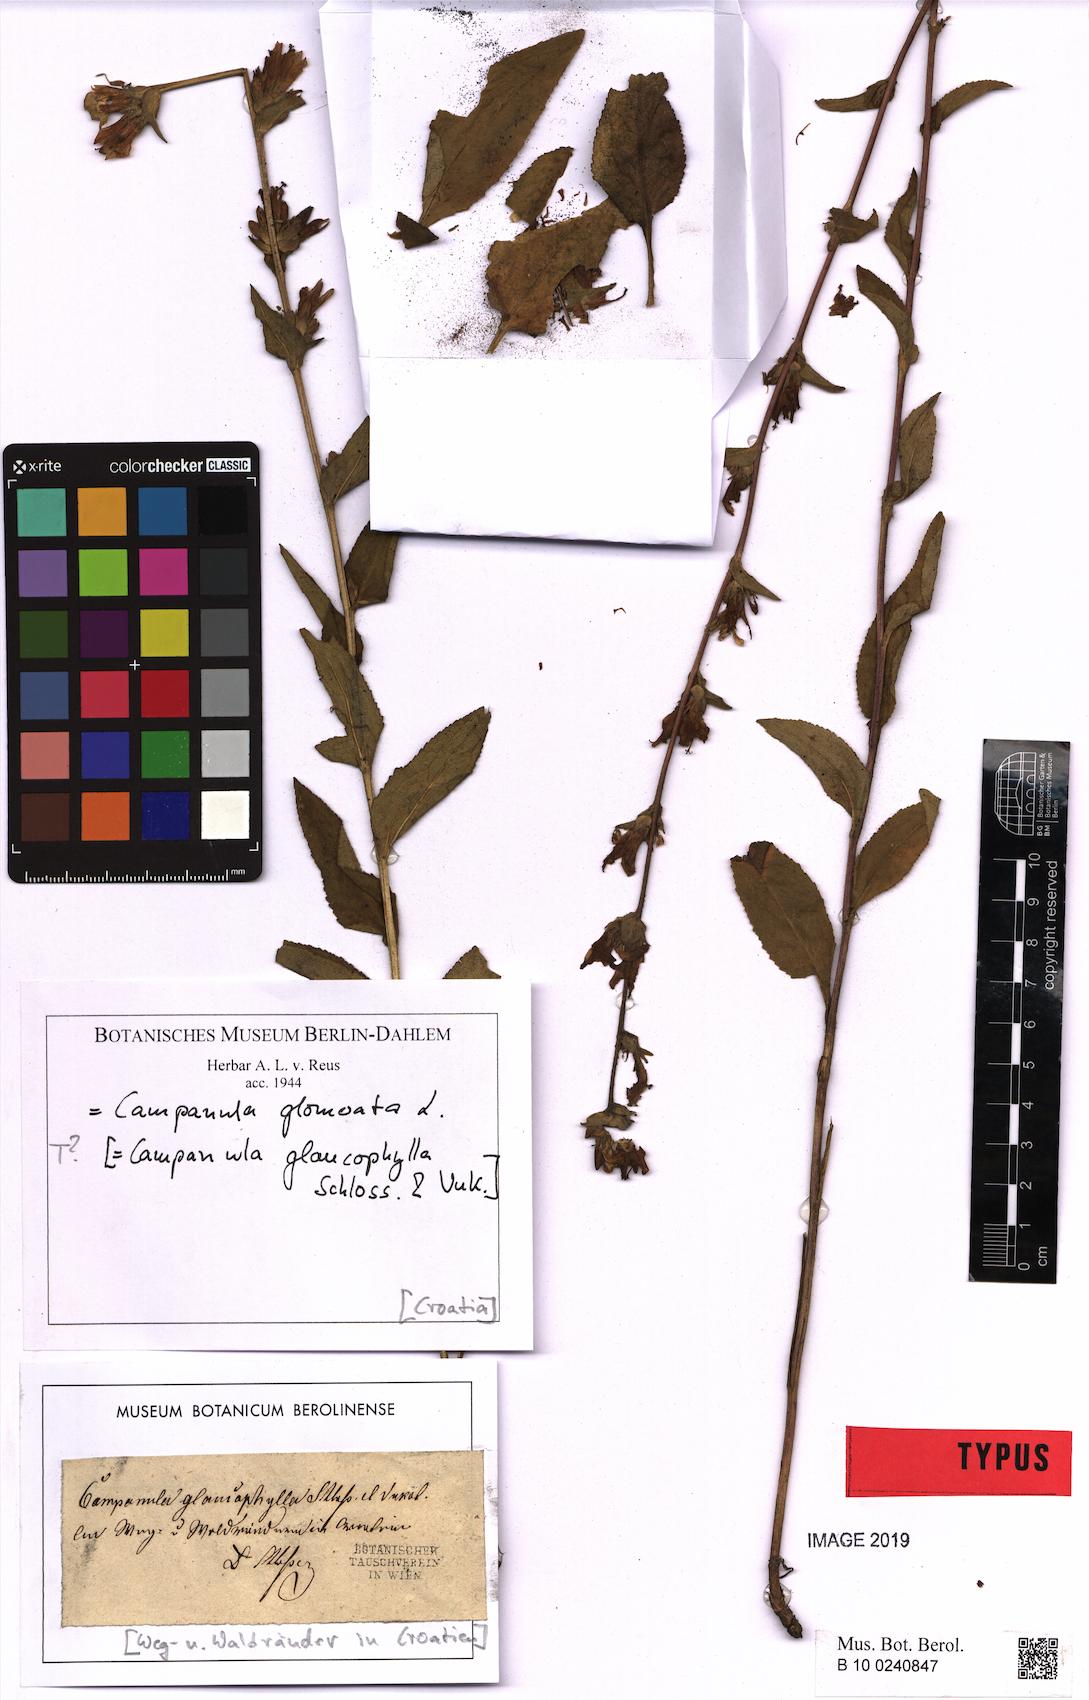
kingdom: Plantae
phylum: Tracheophyta
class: Magnoliopsida
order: Asterales
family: Campanulaceae
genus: Campanula
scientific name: Campanula glomerata
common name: Clustered bellflower
